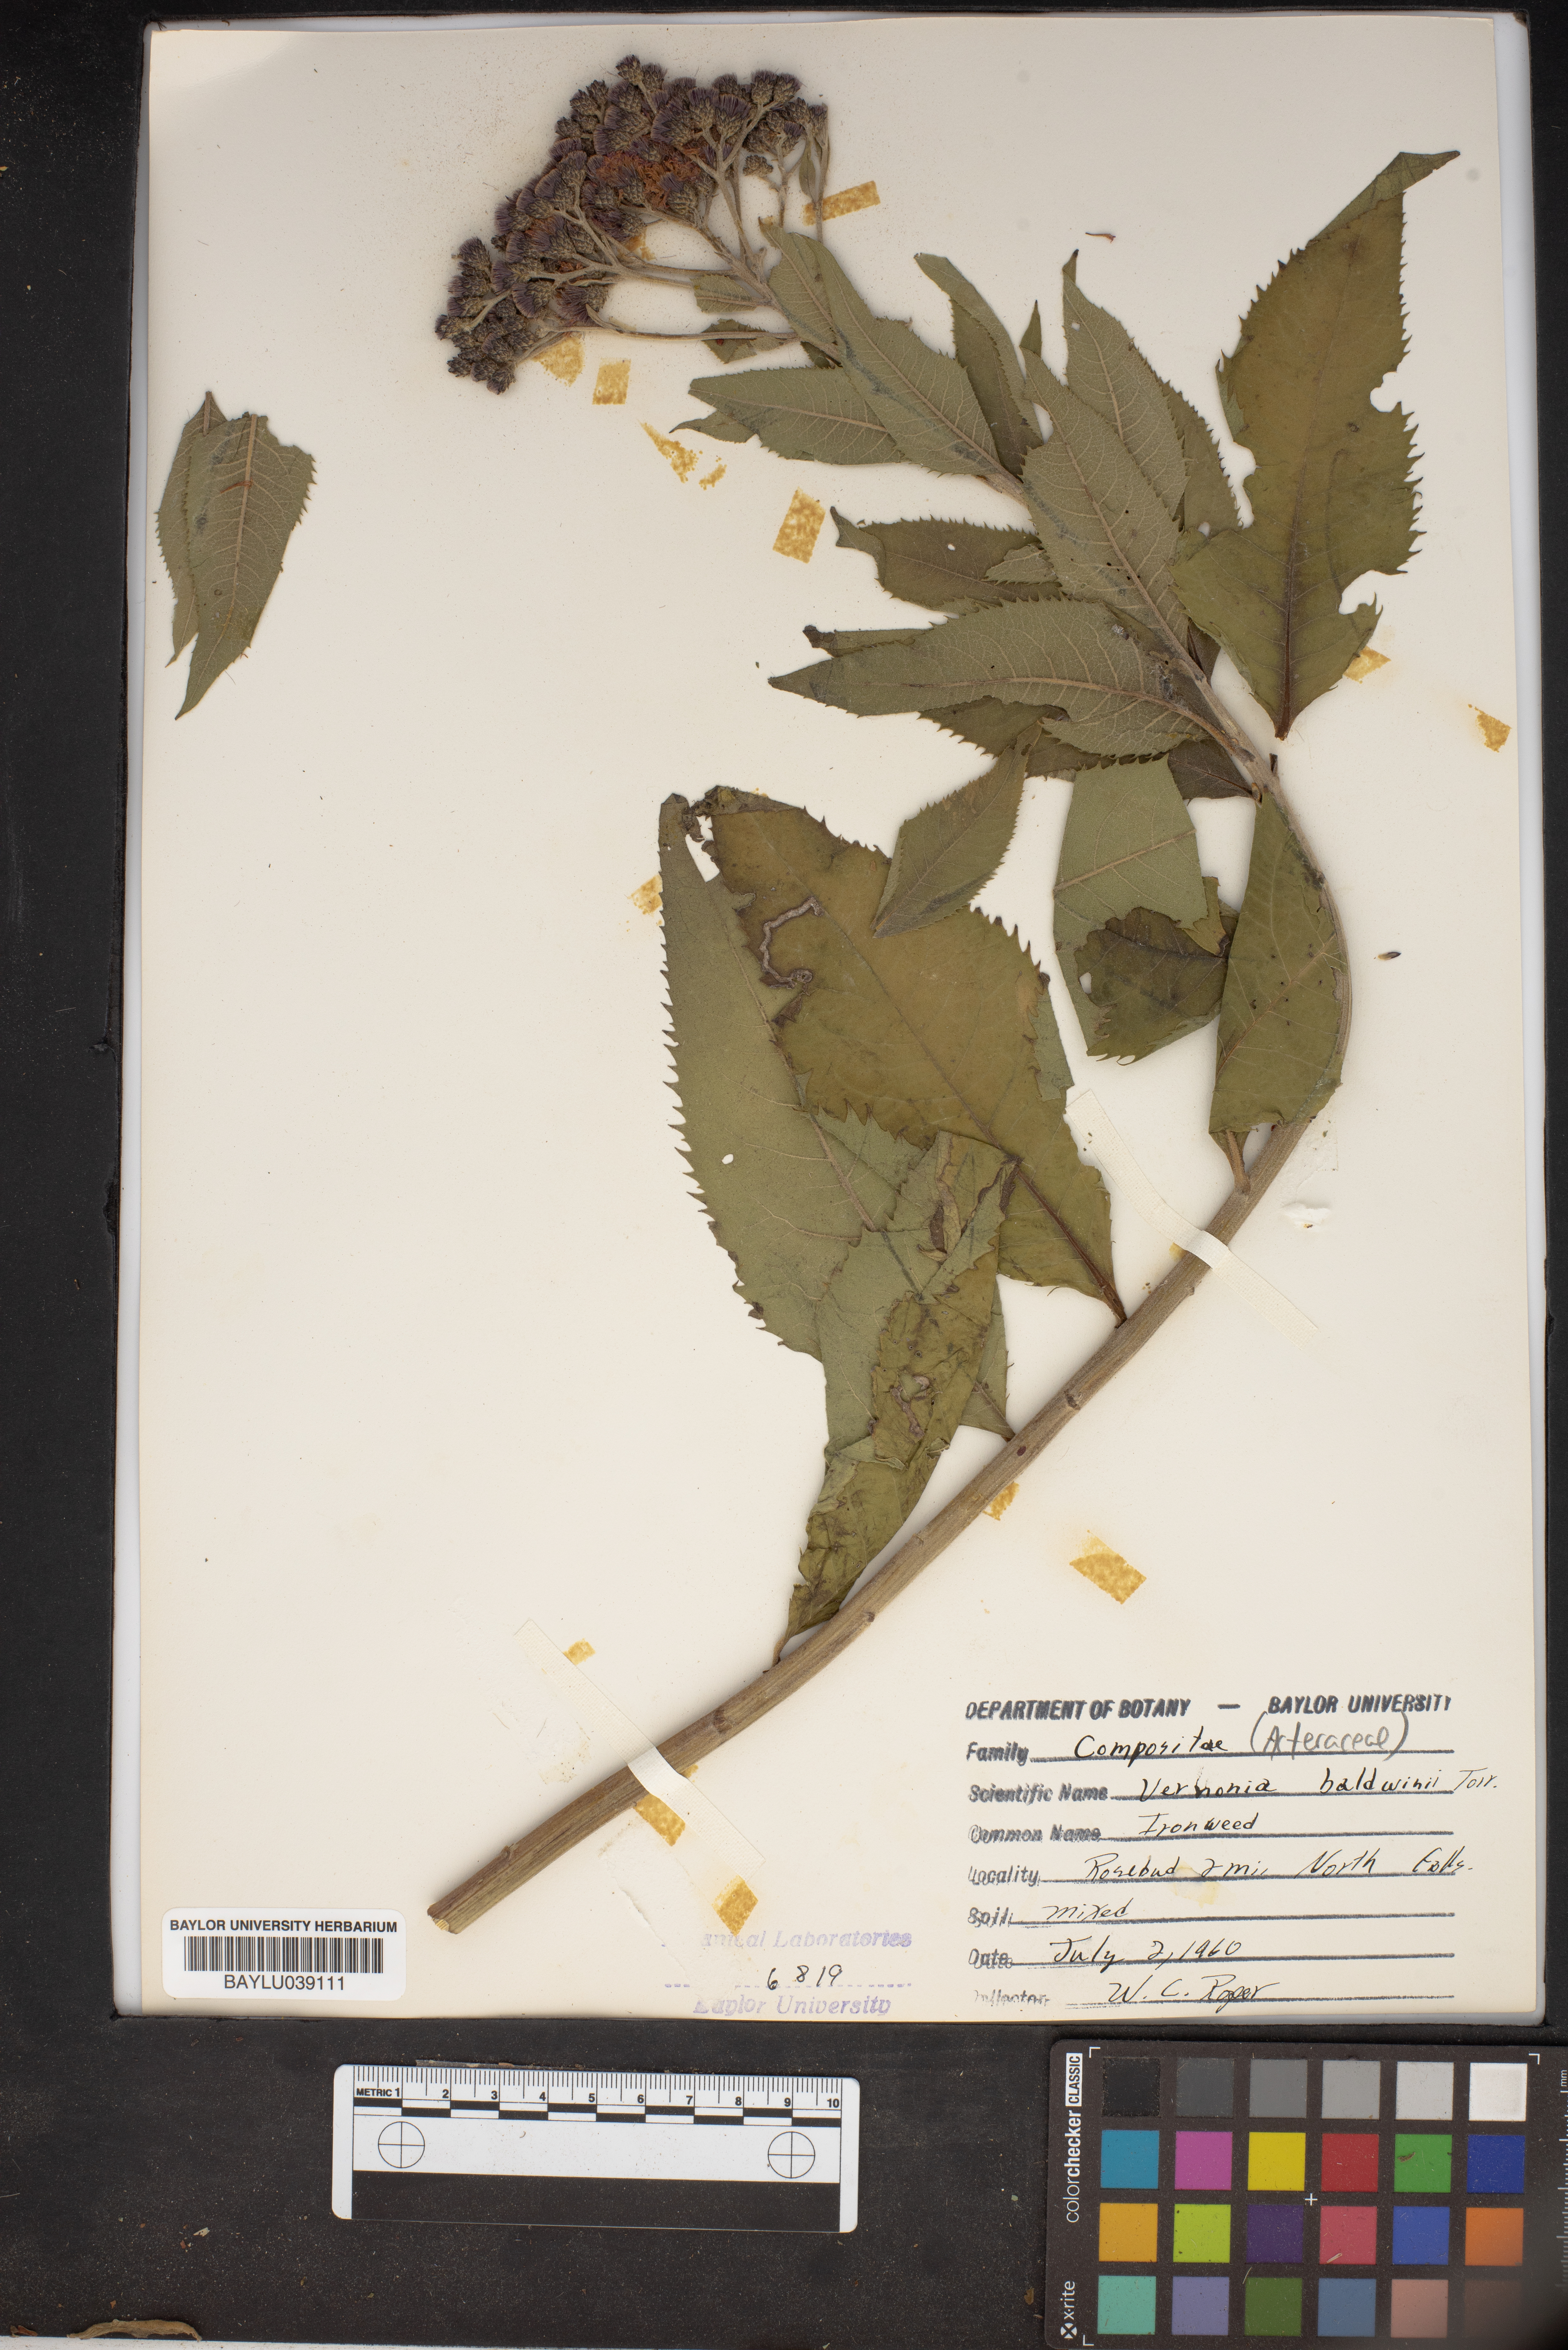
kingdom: Plantae
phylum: Tracheophyta
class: Magnoliopsida
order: Asterales
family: Asteraceae
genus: Vernonia
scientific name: Vernonia baldwinii
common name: Western ironweed
